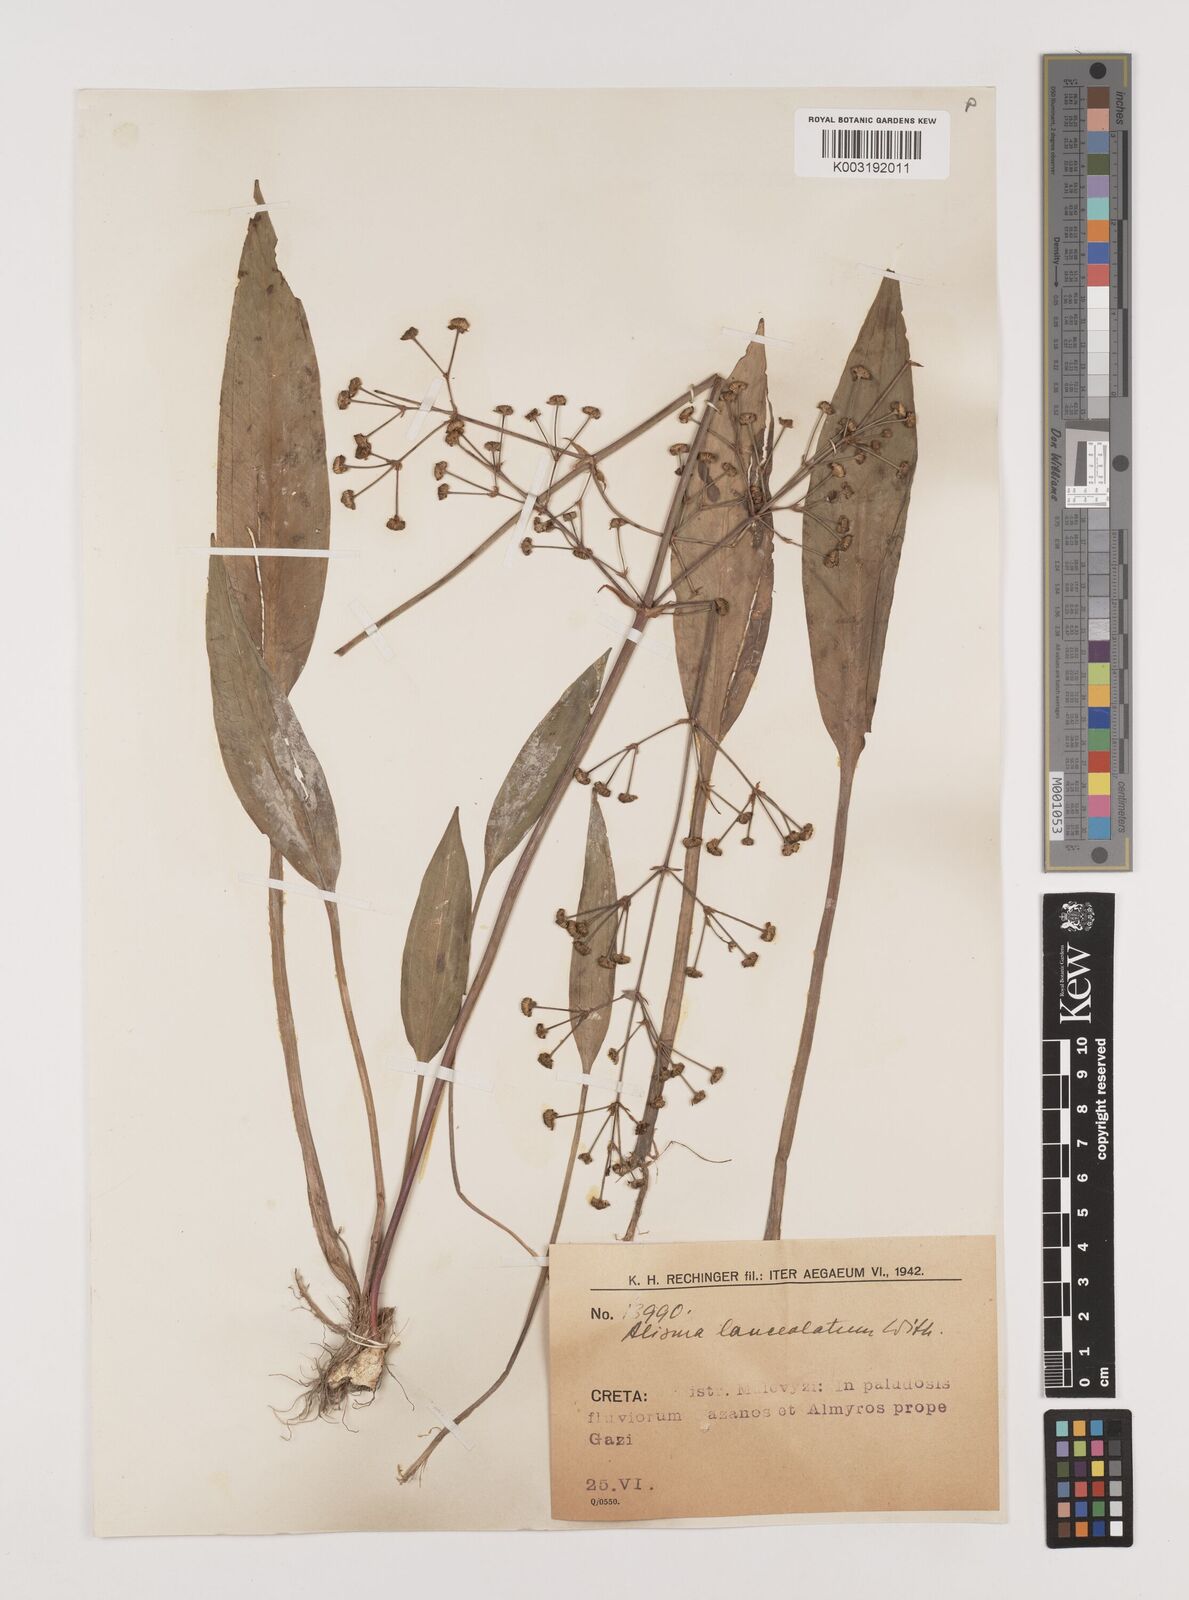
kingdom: Plantae
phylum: Tracheophyta
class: Liliopsida
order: Alismatales
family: Alismataceae
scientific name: Alismataceae
